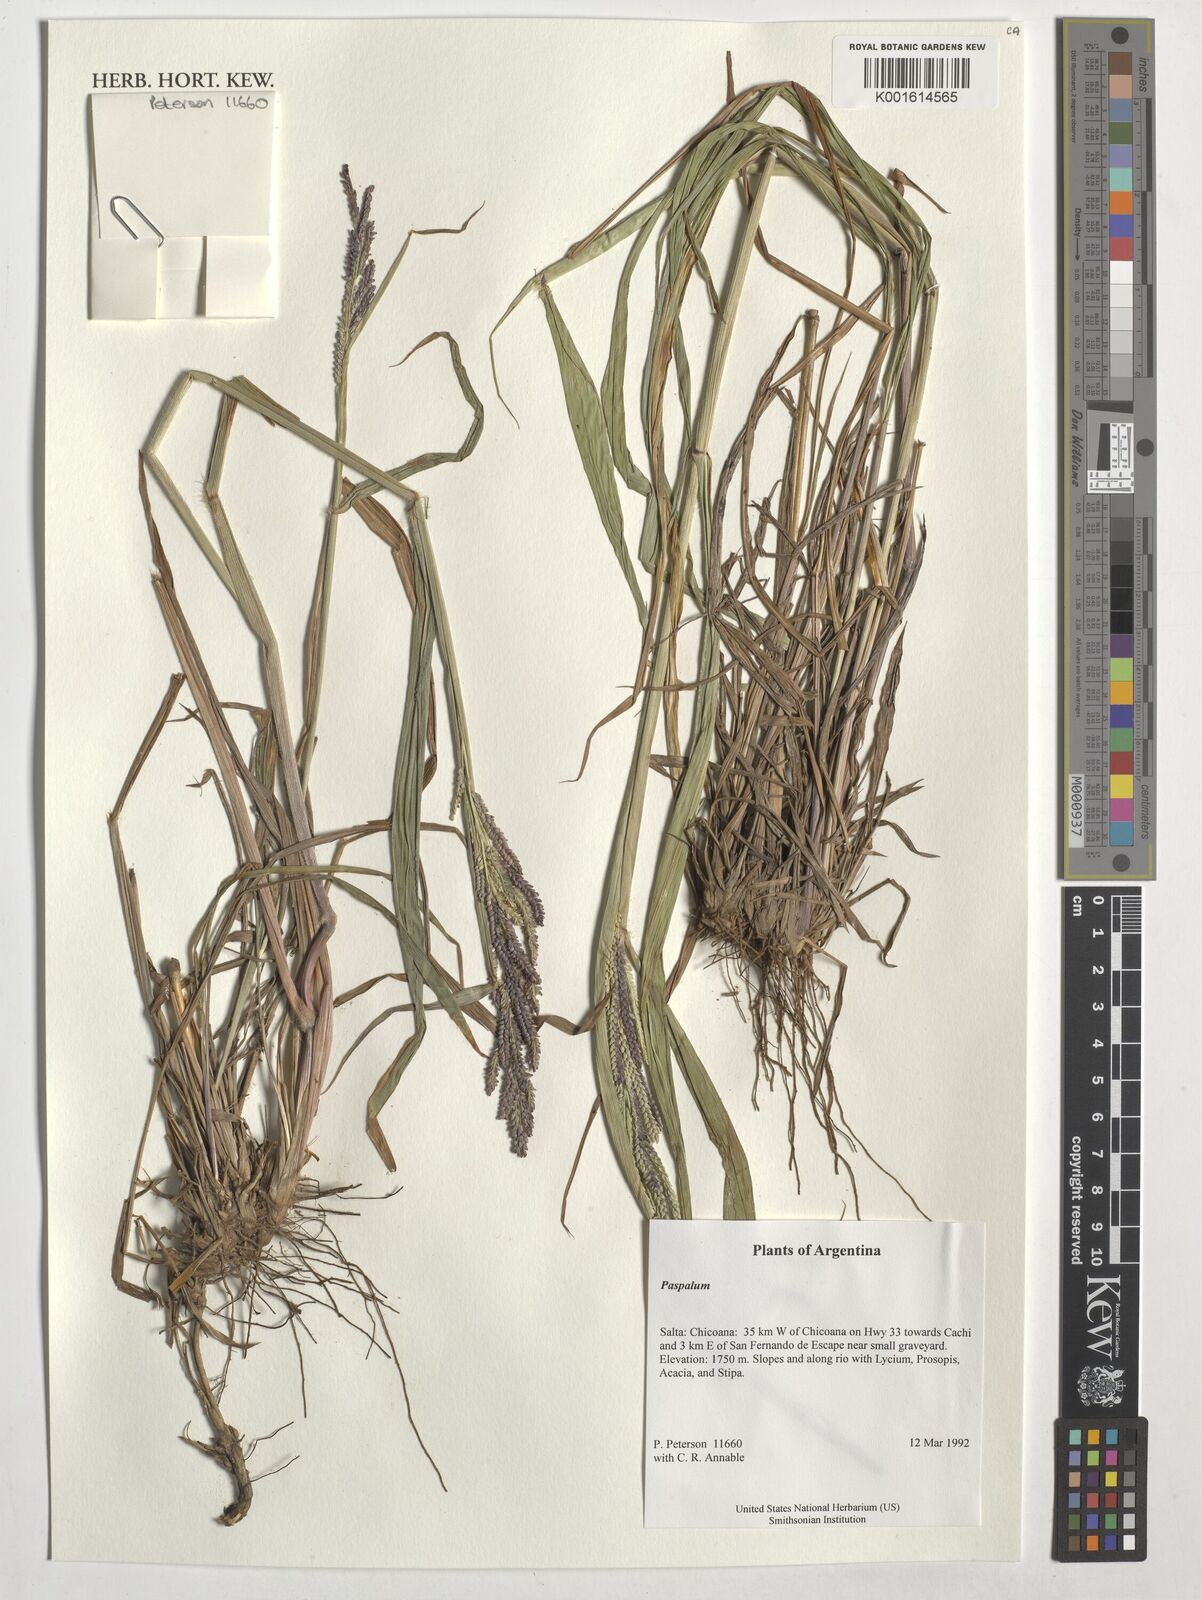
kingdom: Plantae
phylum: Tracheophyta
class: Liliopsida
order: Poales
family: Poaceae
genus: Paspalum
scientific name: Paspalum
